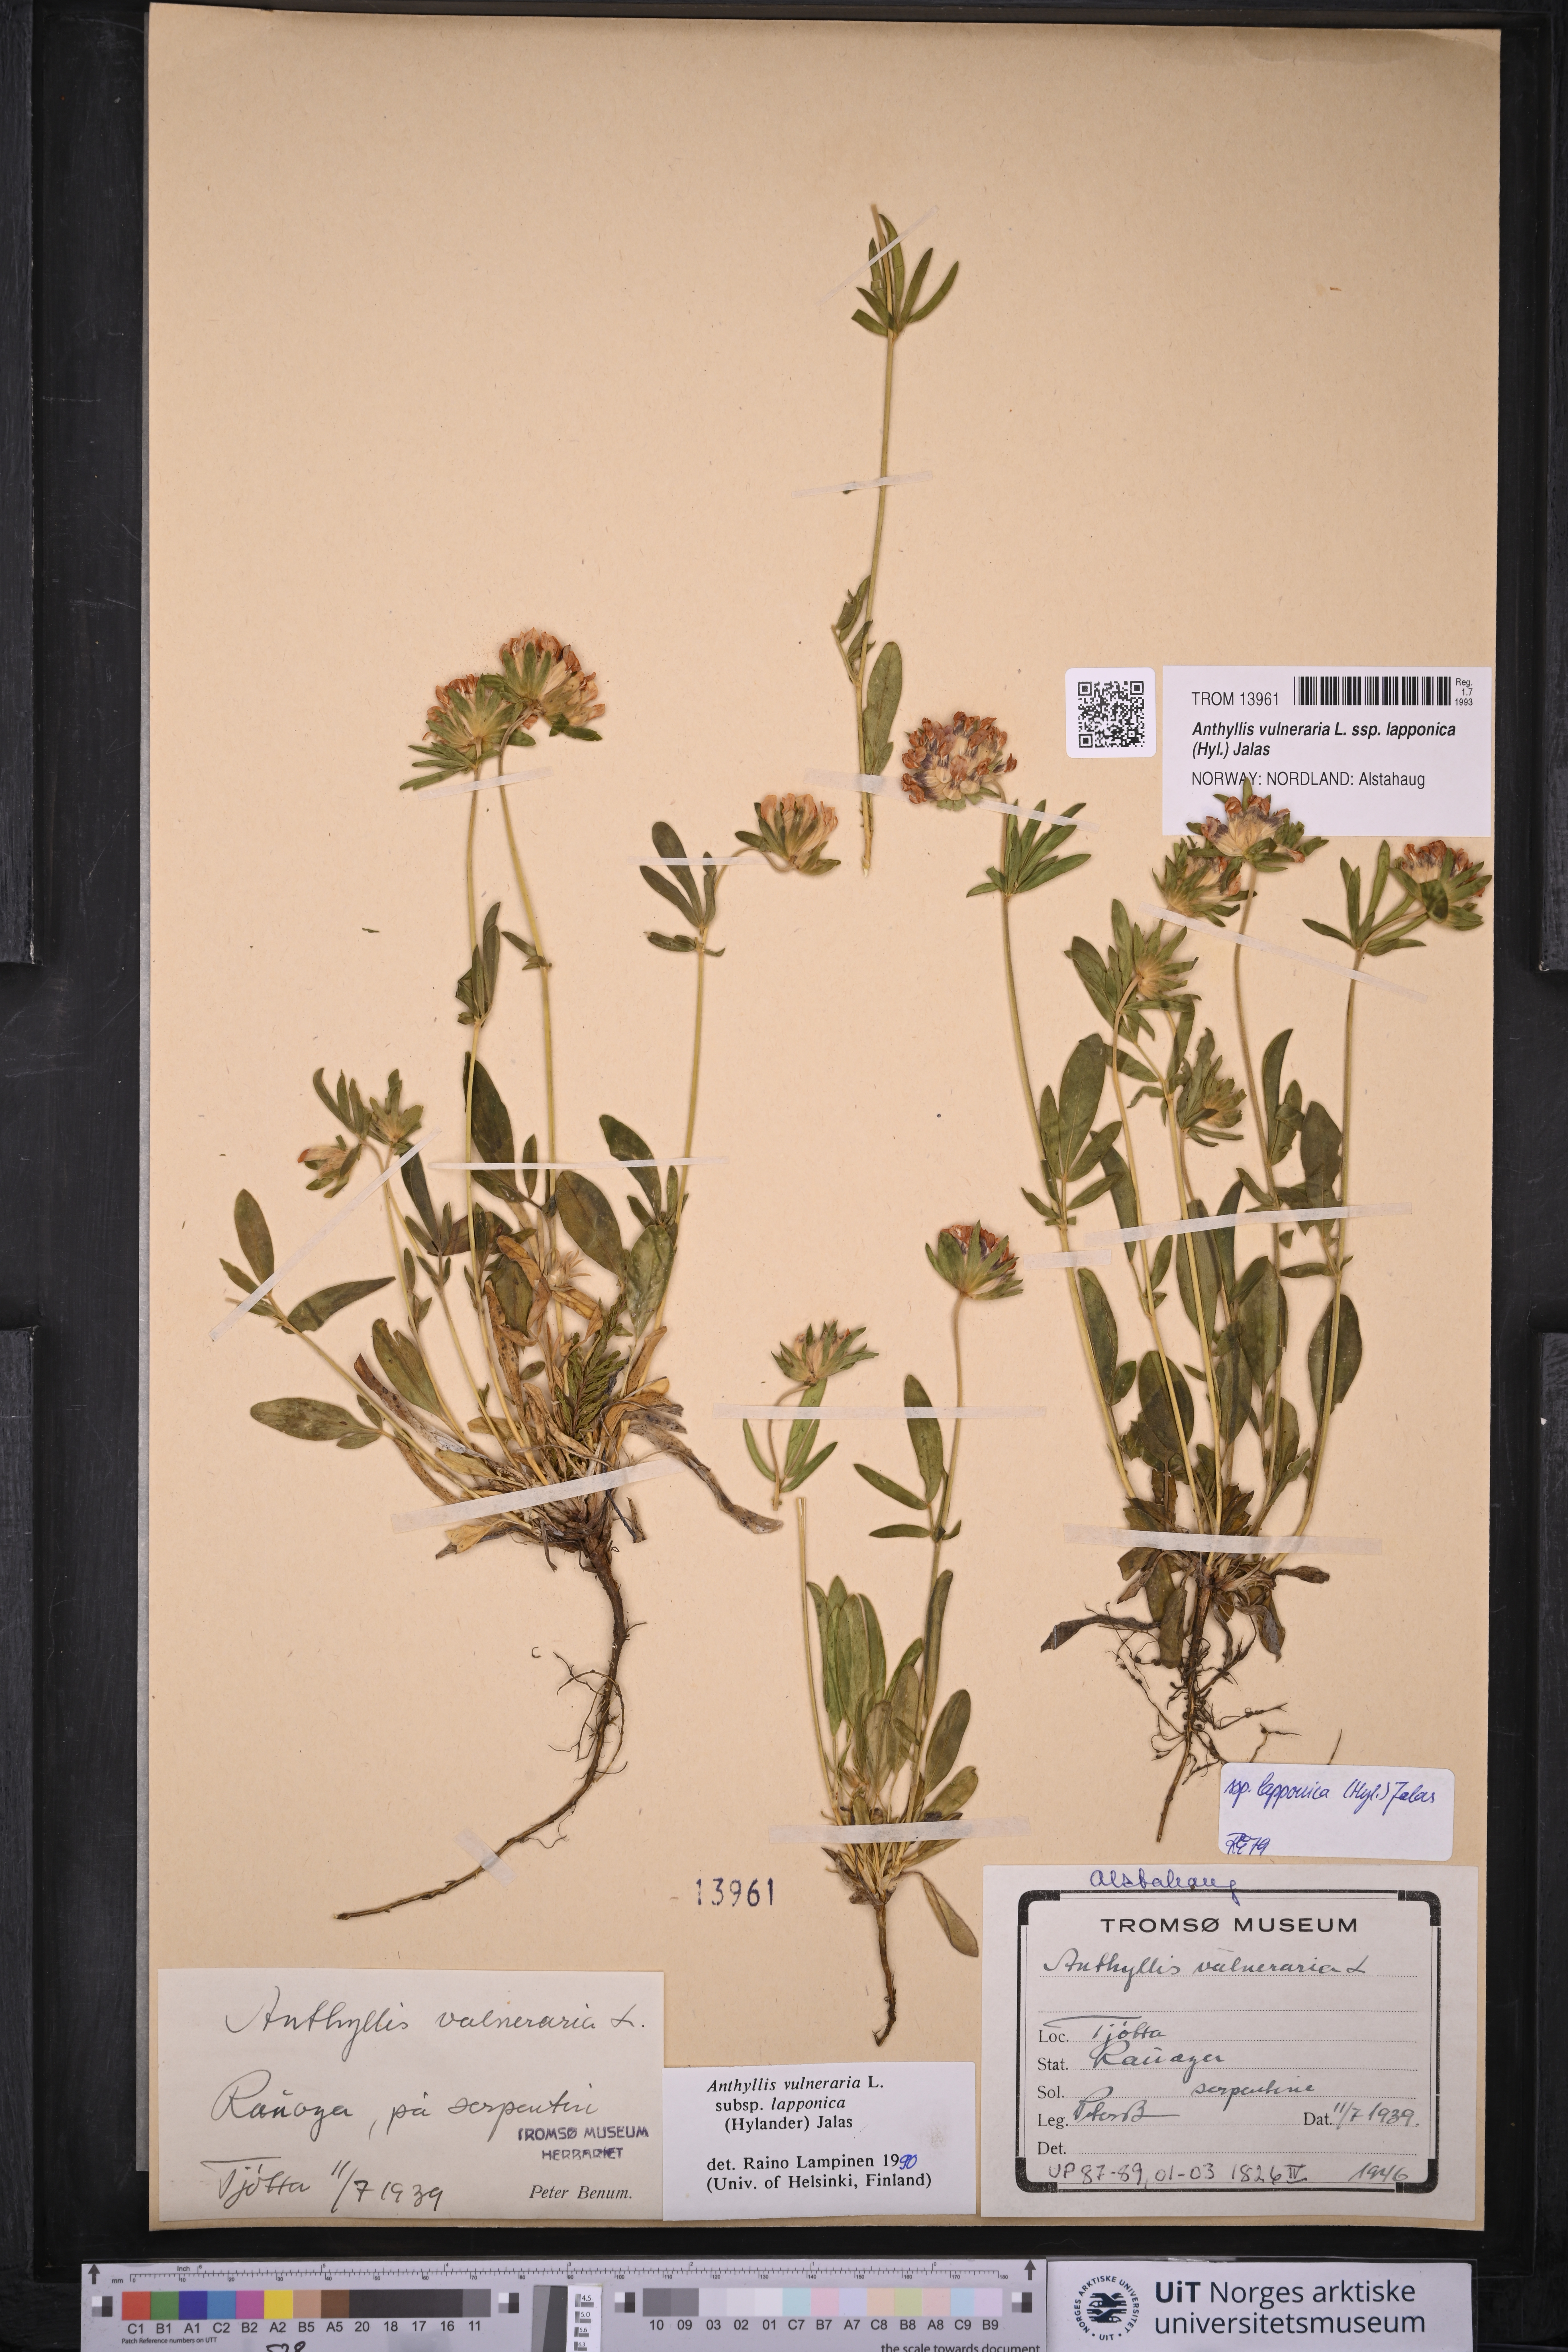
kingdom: Plantae
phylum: Tracheophyta
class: Magnoliopsida
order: Fabales
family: Fabaceae
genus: Anthyllis
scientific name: Anthyllis vulneraria
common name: Kidney vetch
